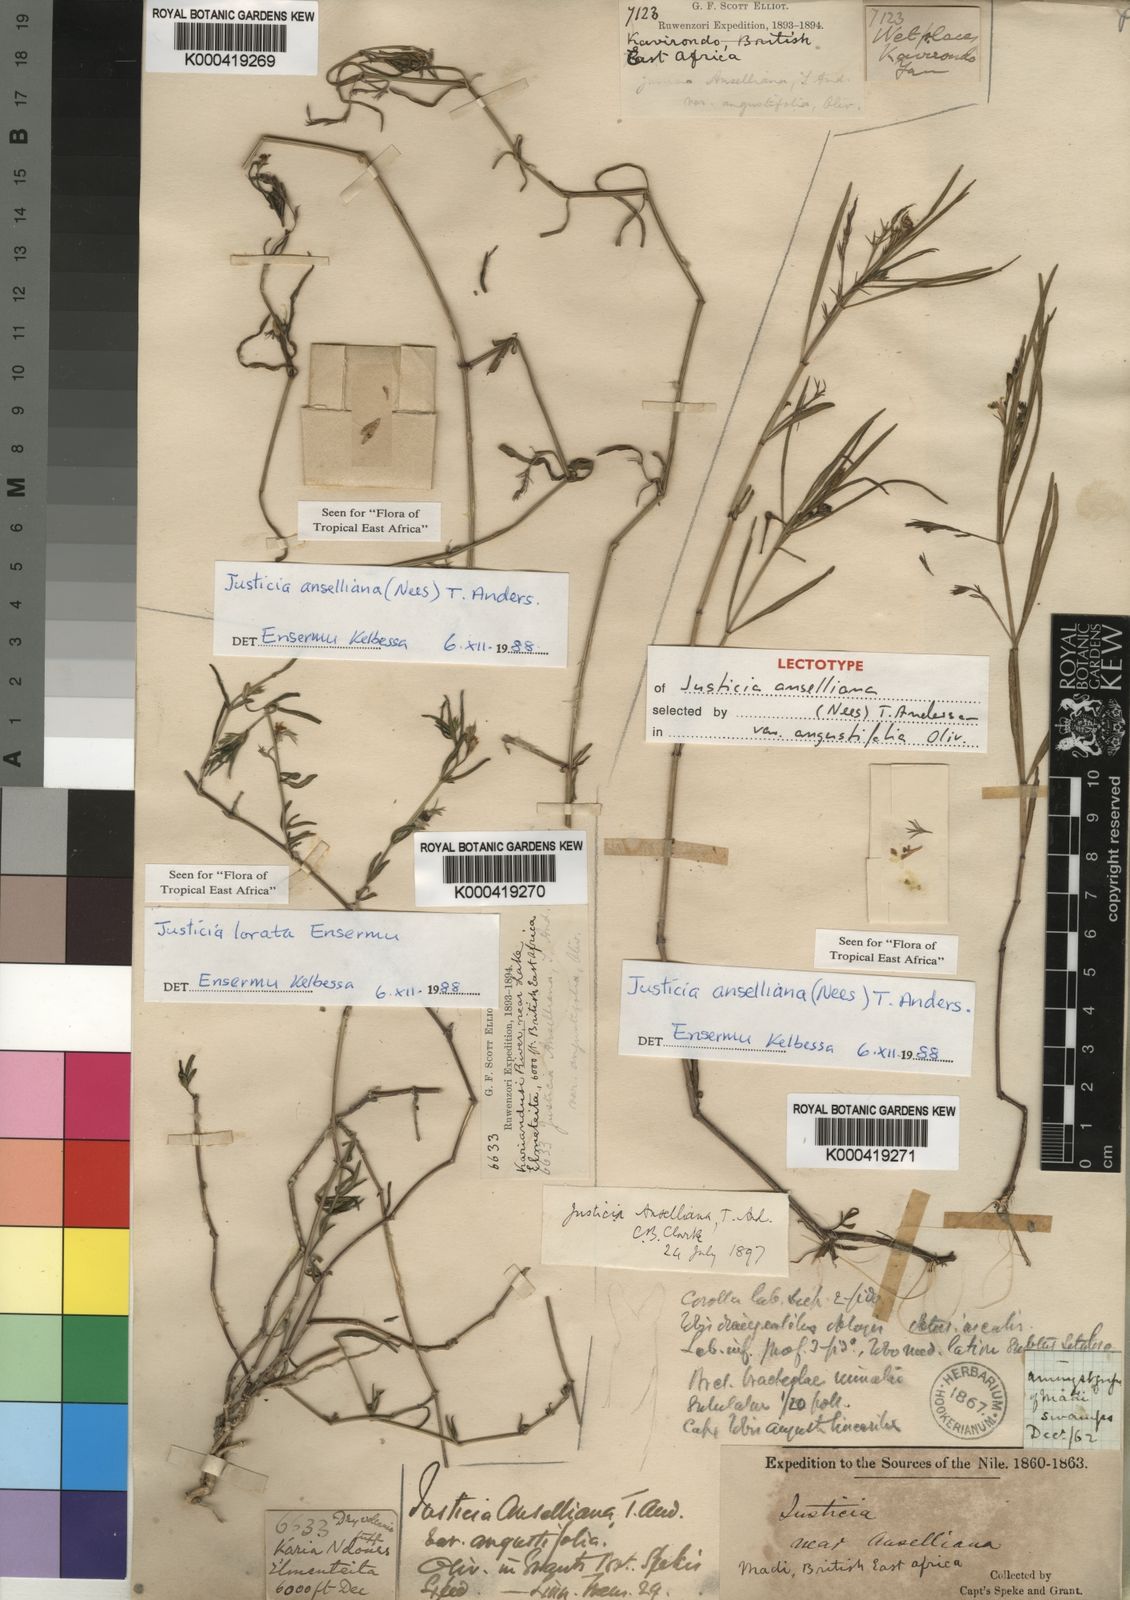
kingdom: Plantae
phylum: Tracheophyta
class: Magnoliopsida
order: Lamiales
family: Acanthaceae
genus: Justicia
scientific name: Justicia anselliana
